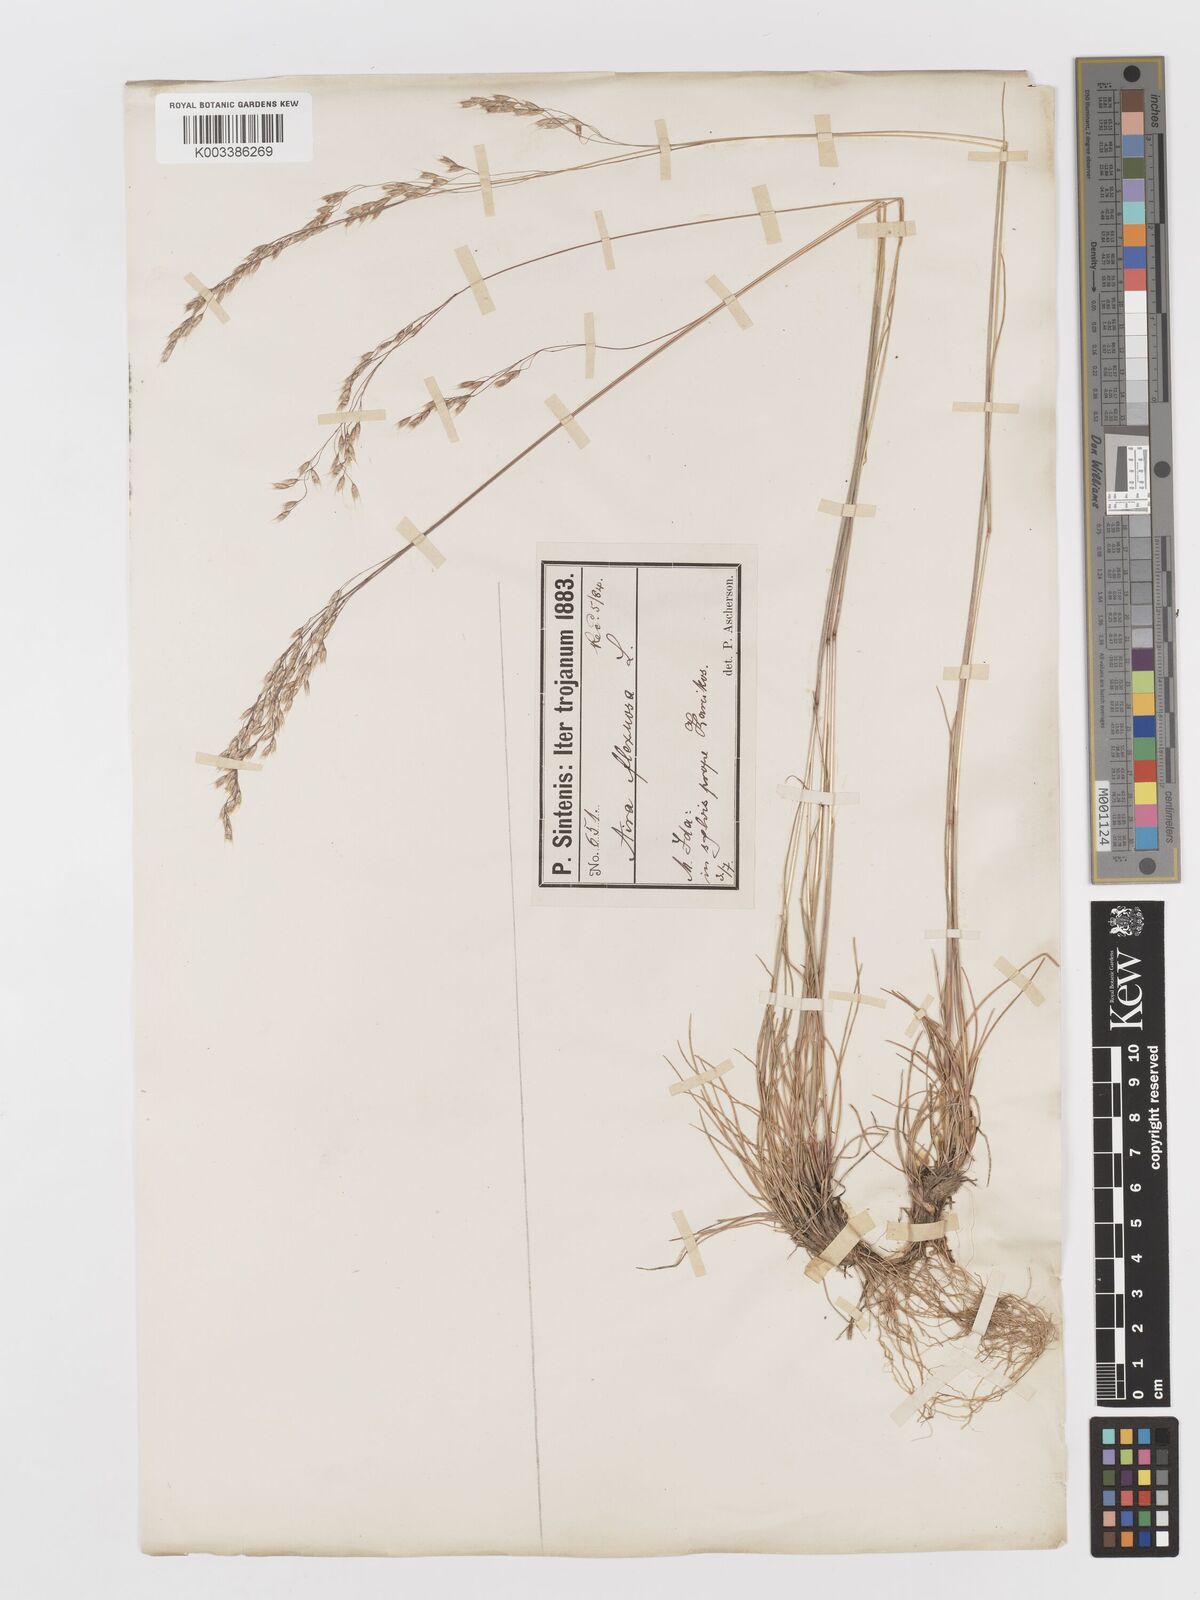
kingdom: Plantae
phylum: Tracheophyta
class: Liliopsida
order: Poales
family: Poaceae
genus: Avenella
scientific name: Avenella flexuosa
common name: Wavy hairgrass
